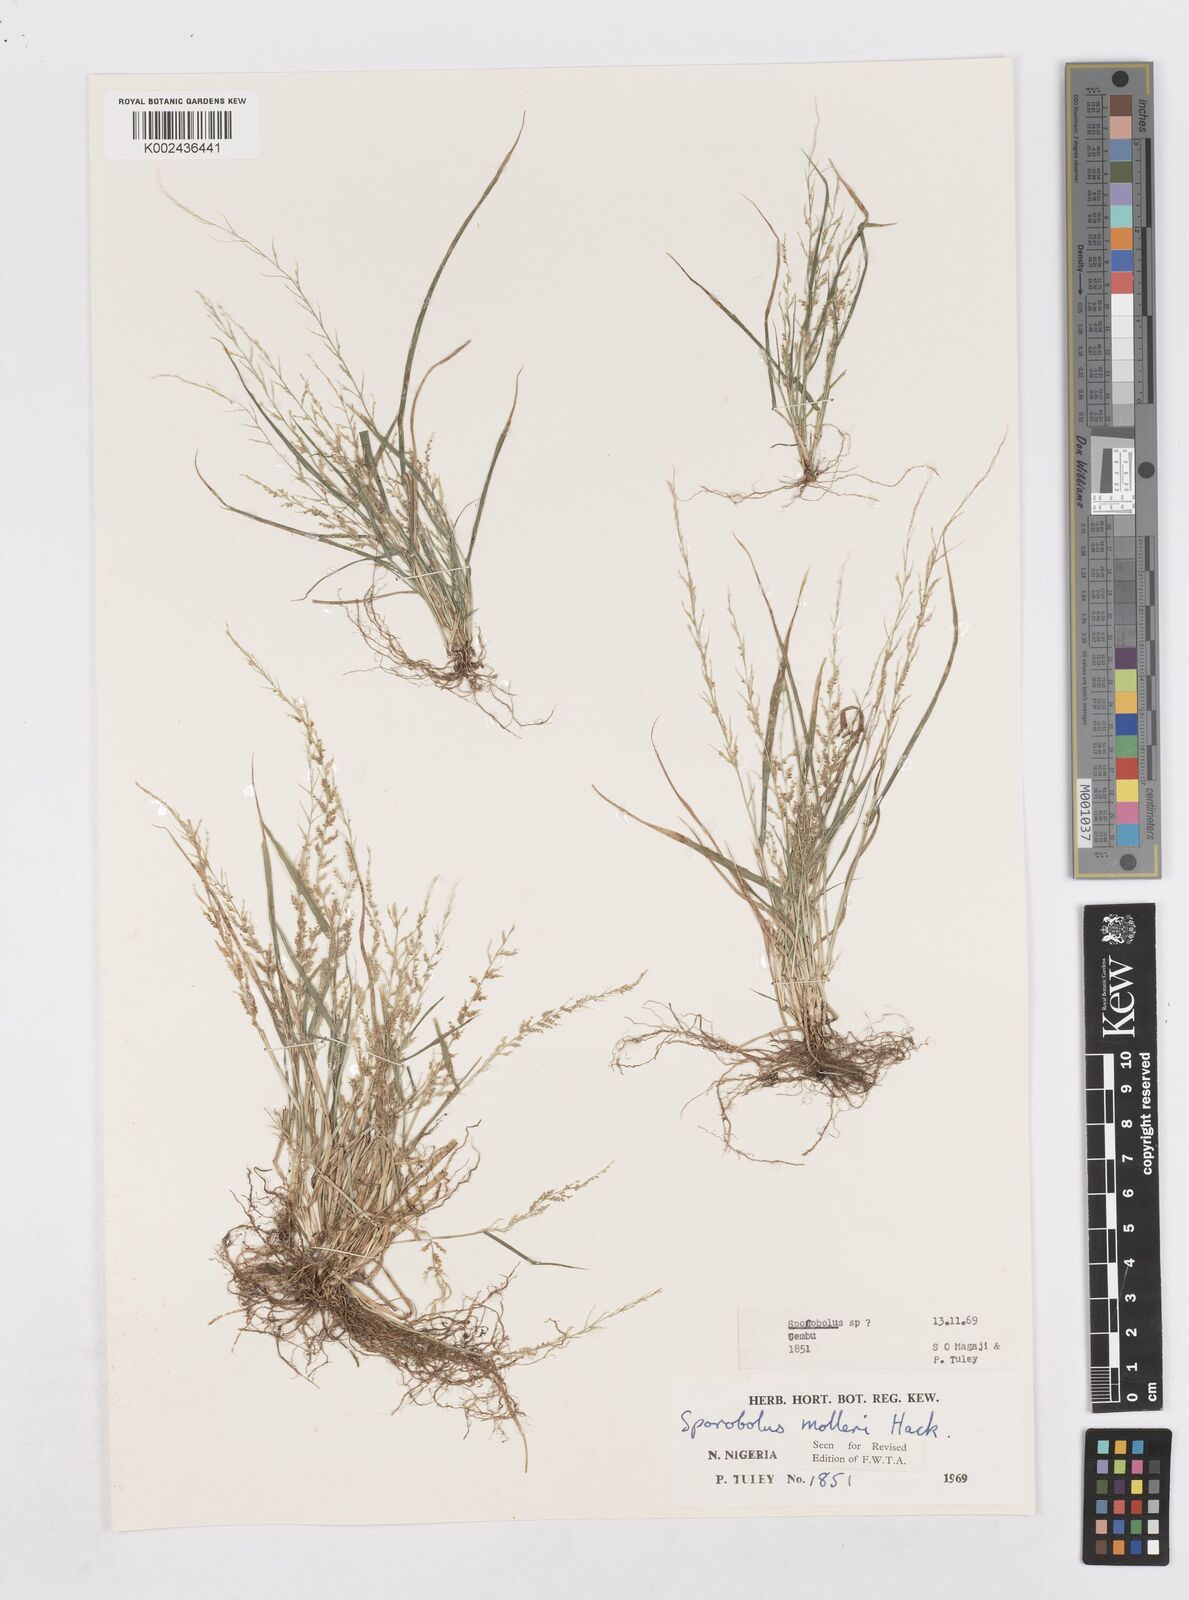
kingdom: Plantae
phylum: Tracheophyta
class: Liliopsida
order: Poales
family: Poaceae
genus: Sporobolus
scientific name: Sporobolus molleri
